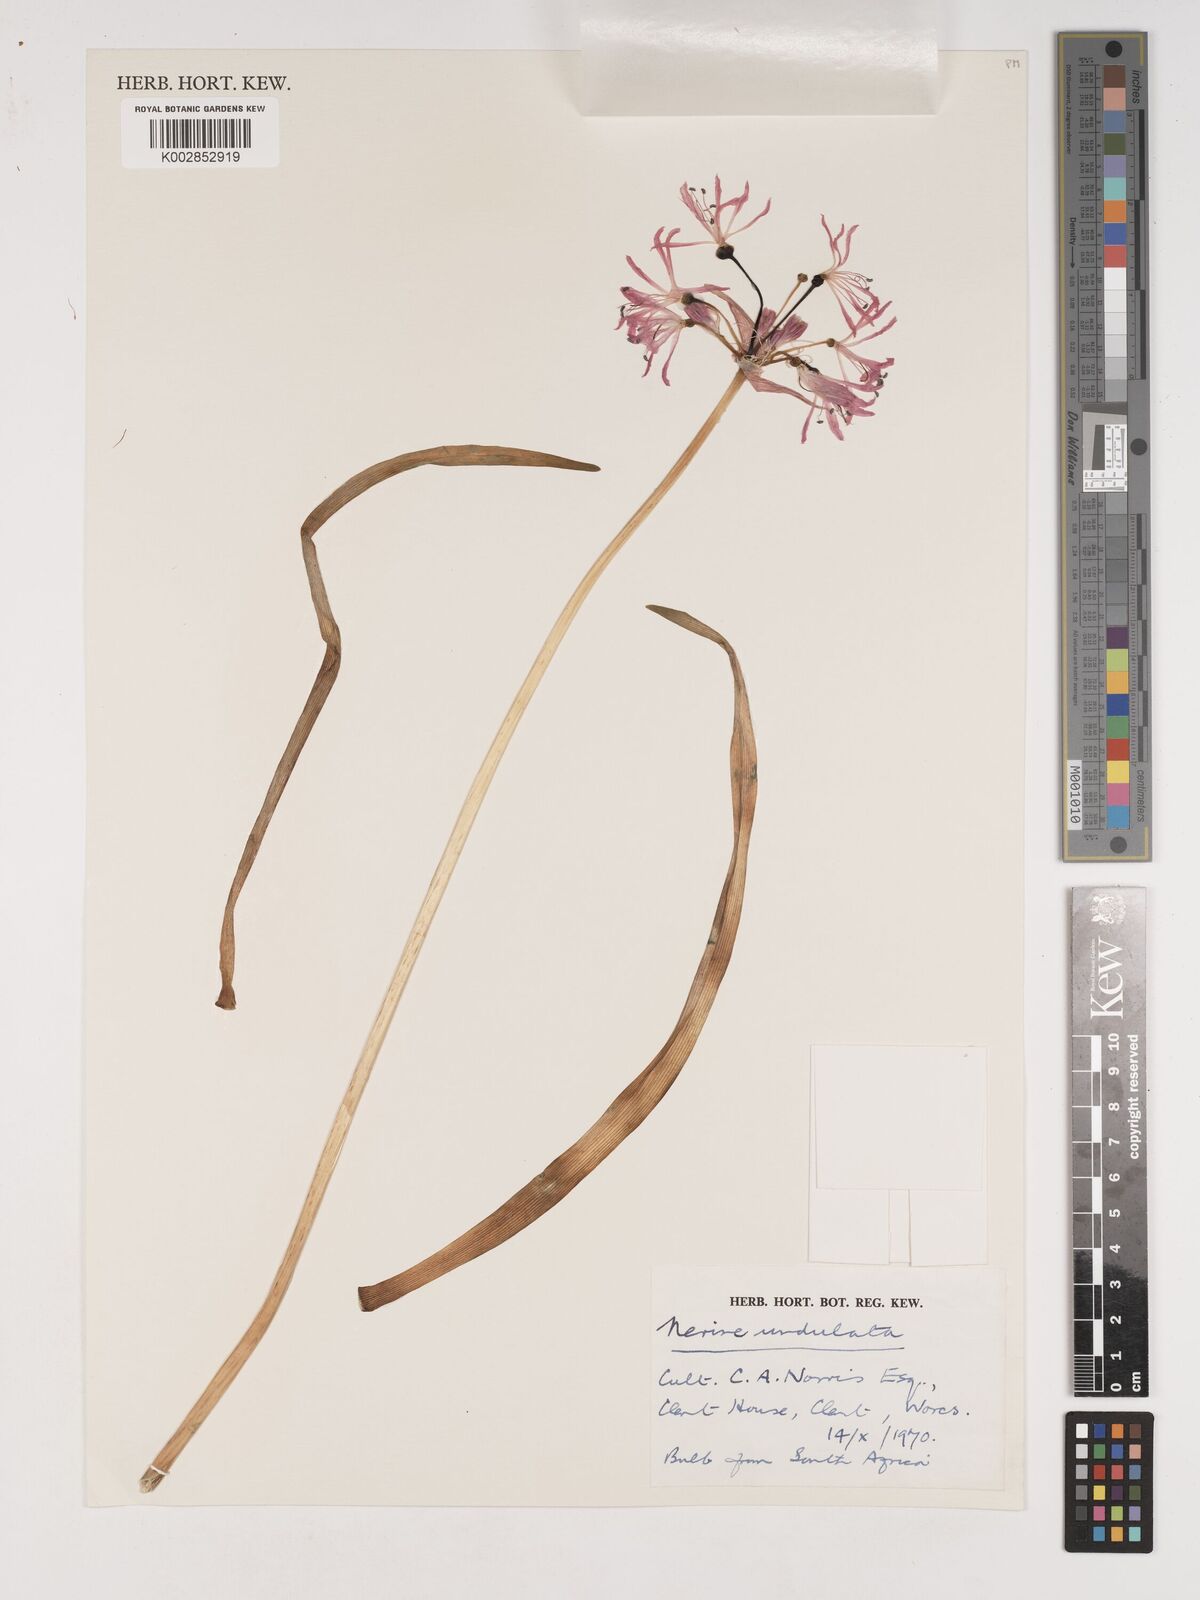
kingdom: Plantae
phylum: Tracheophyta
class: Liliopsida
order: Asparagales
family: Amaryllidaceae
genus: Nerine
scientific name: Nerine undulata
